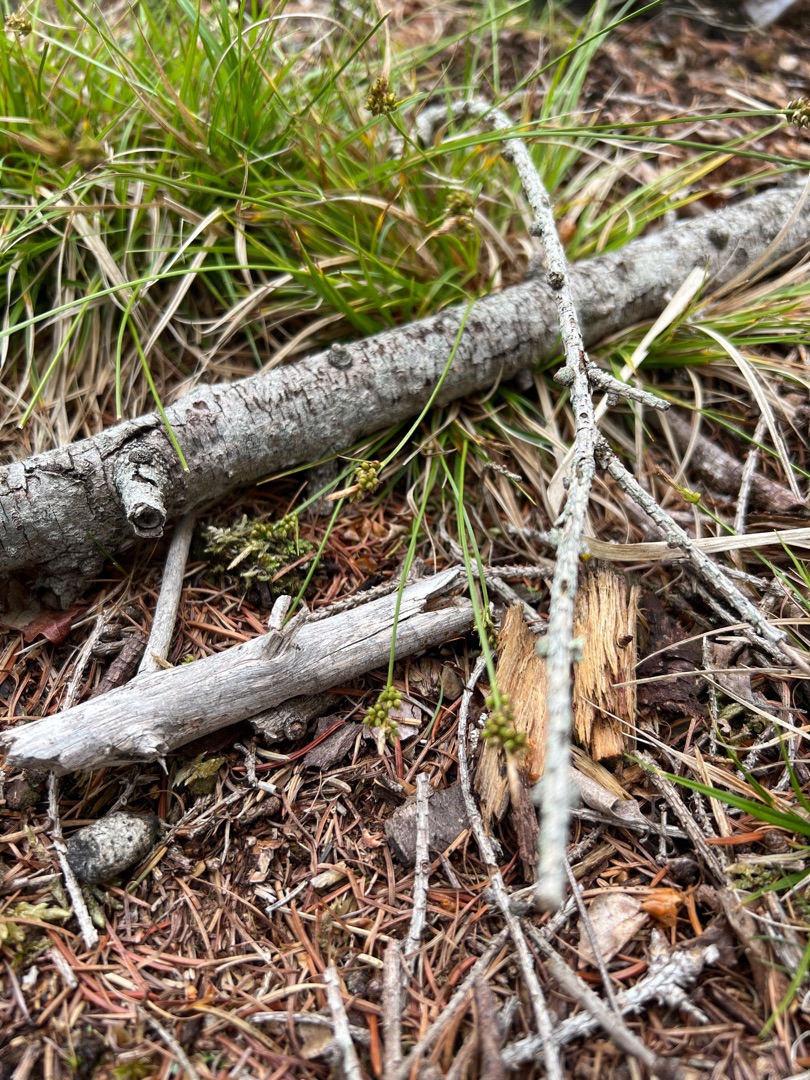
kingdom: Plantae
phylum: Tracheophyta
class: Liliopsida
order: Poales
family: Cyperaceae
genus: Carex
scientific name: Carex pilulifera
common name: Pille-star
